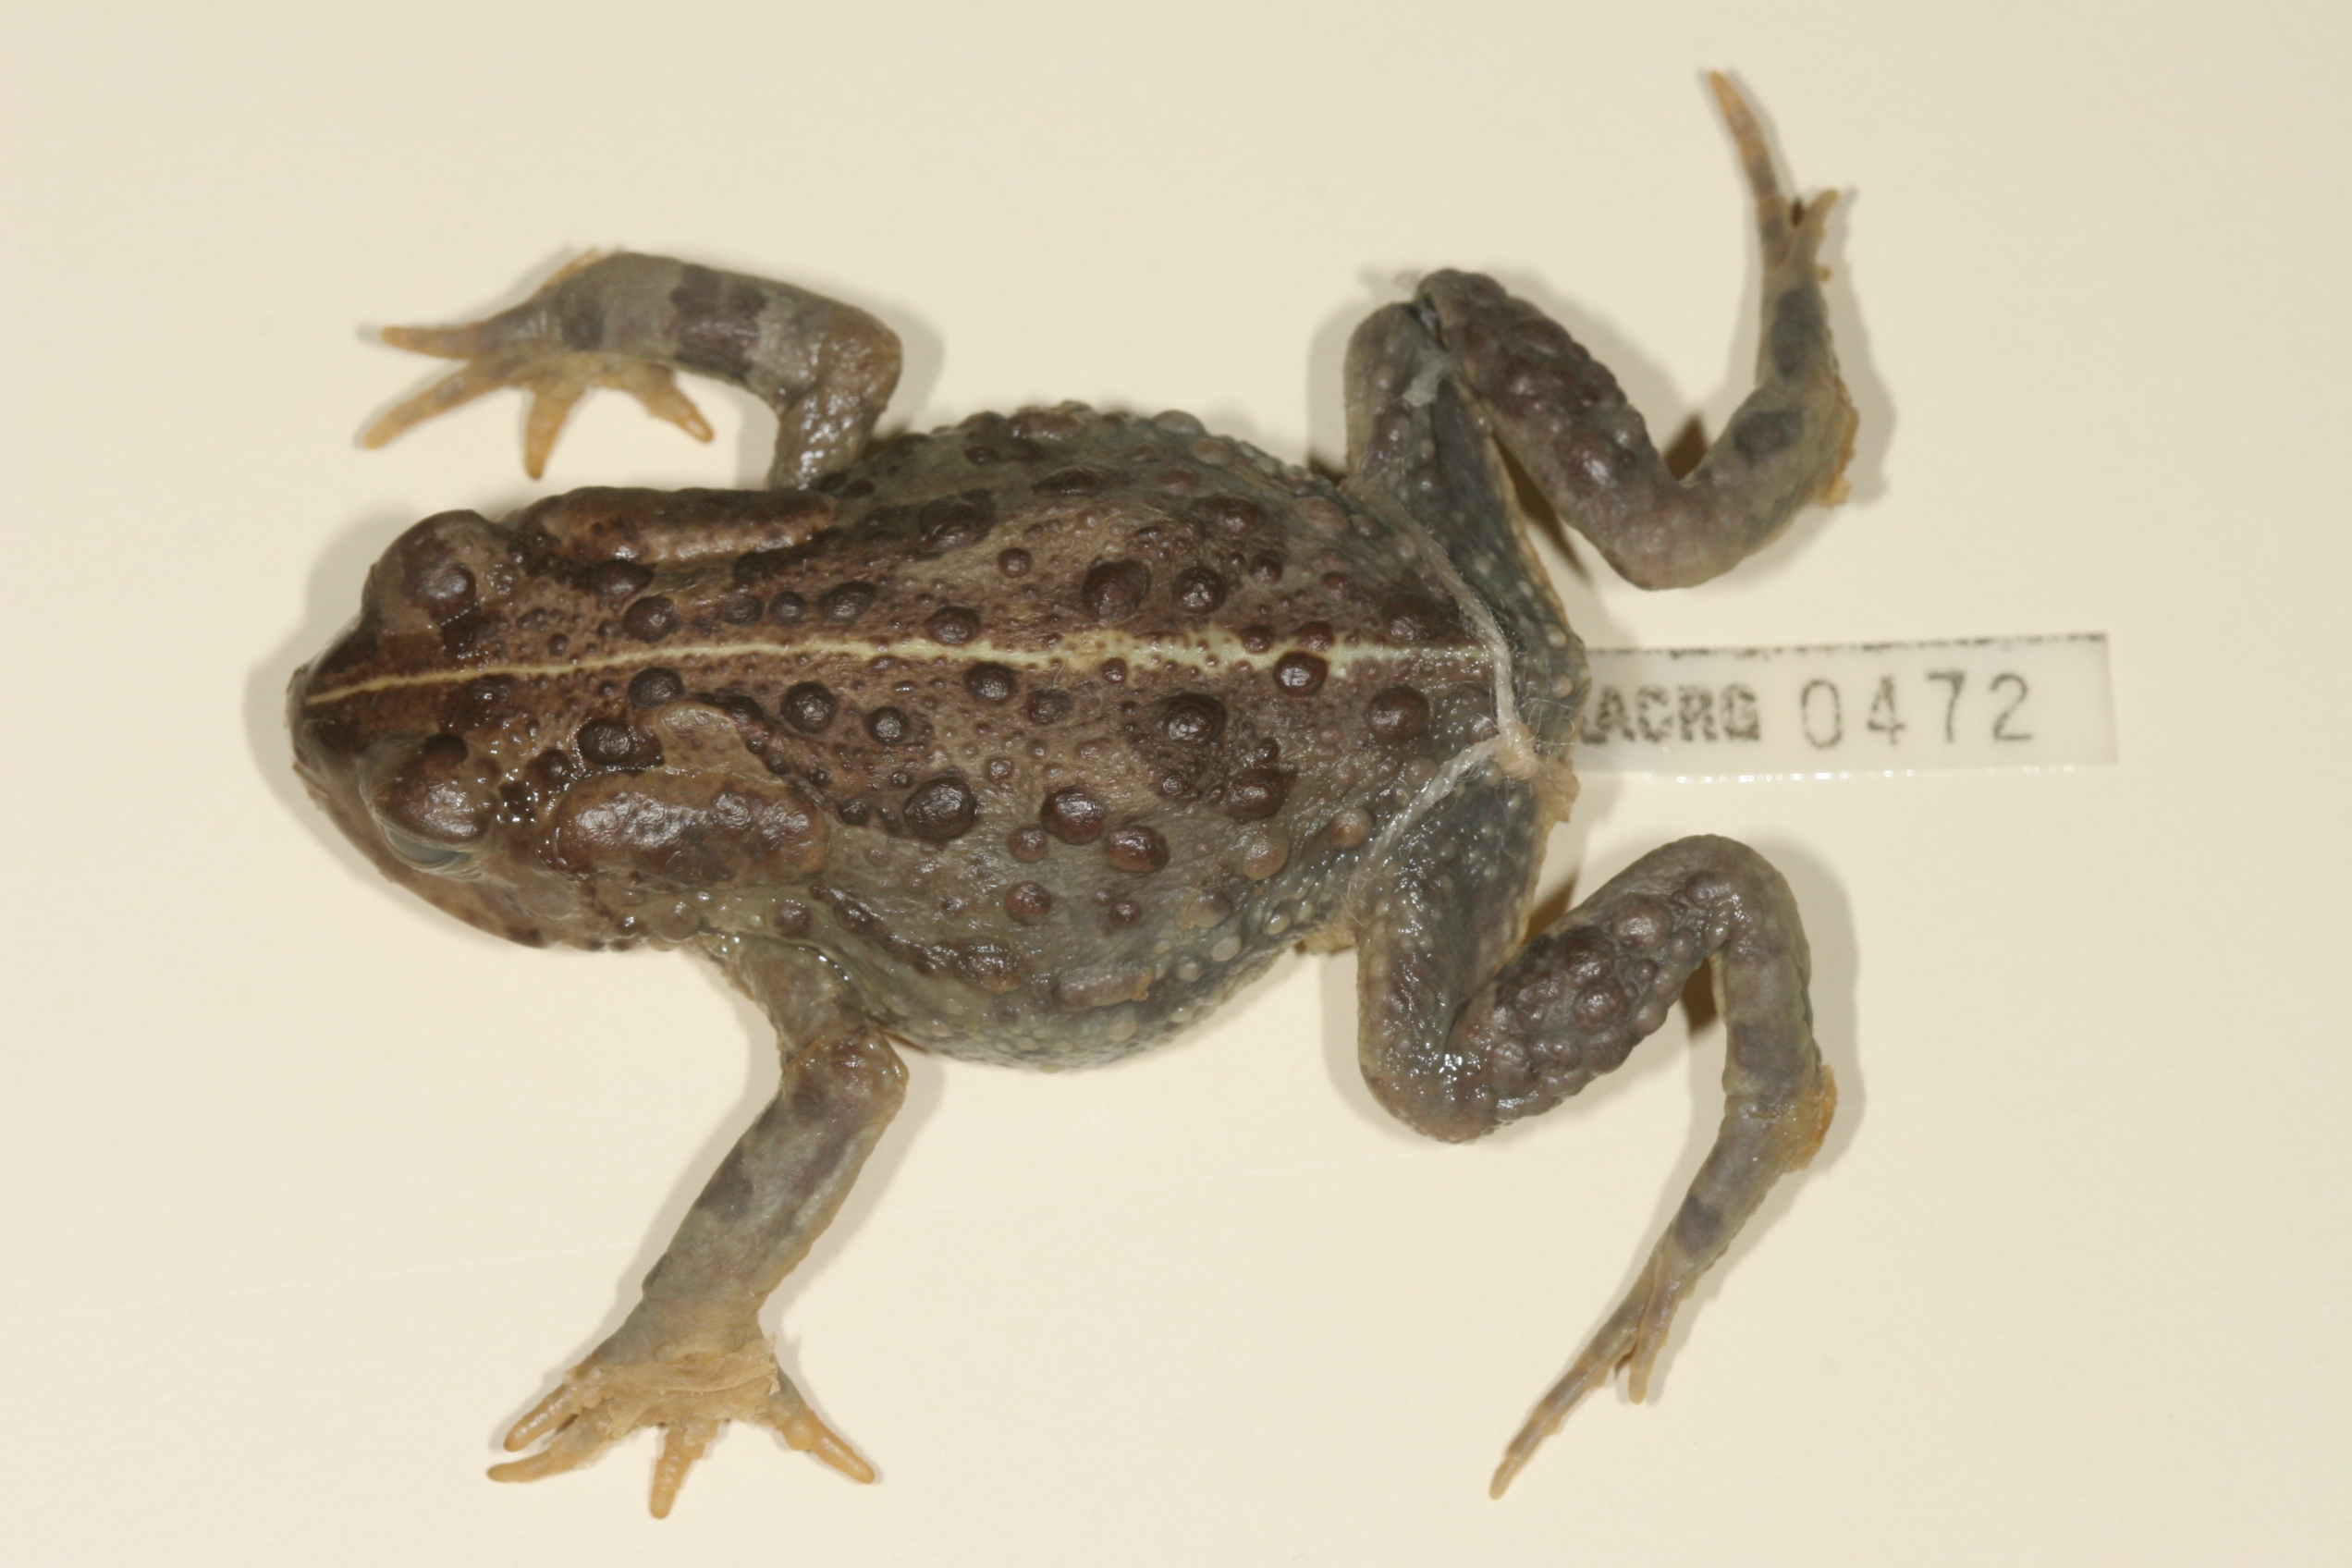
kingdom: Animalia
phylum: Chordata
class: Amphibia
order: Anura
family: Bufonidae
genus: Vandijkophrynus
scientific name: Vandijkophrynus angusticeps
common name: Sand toad
